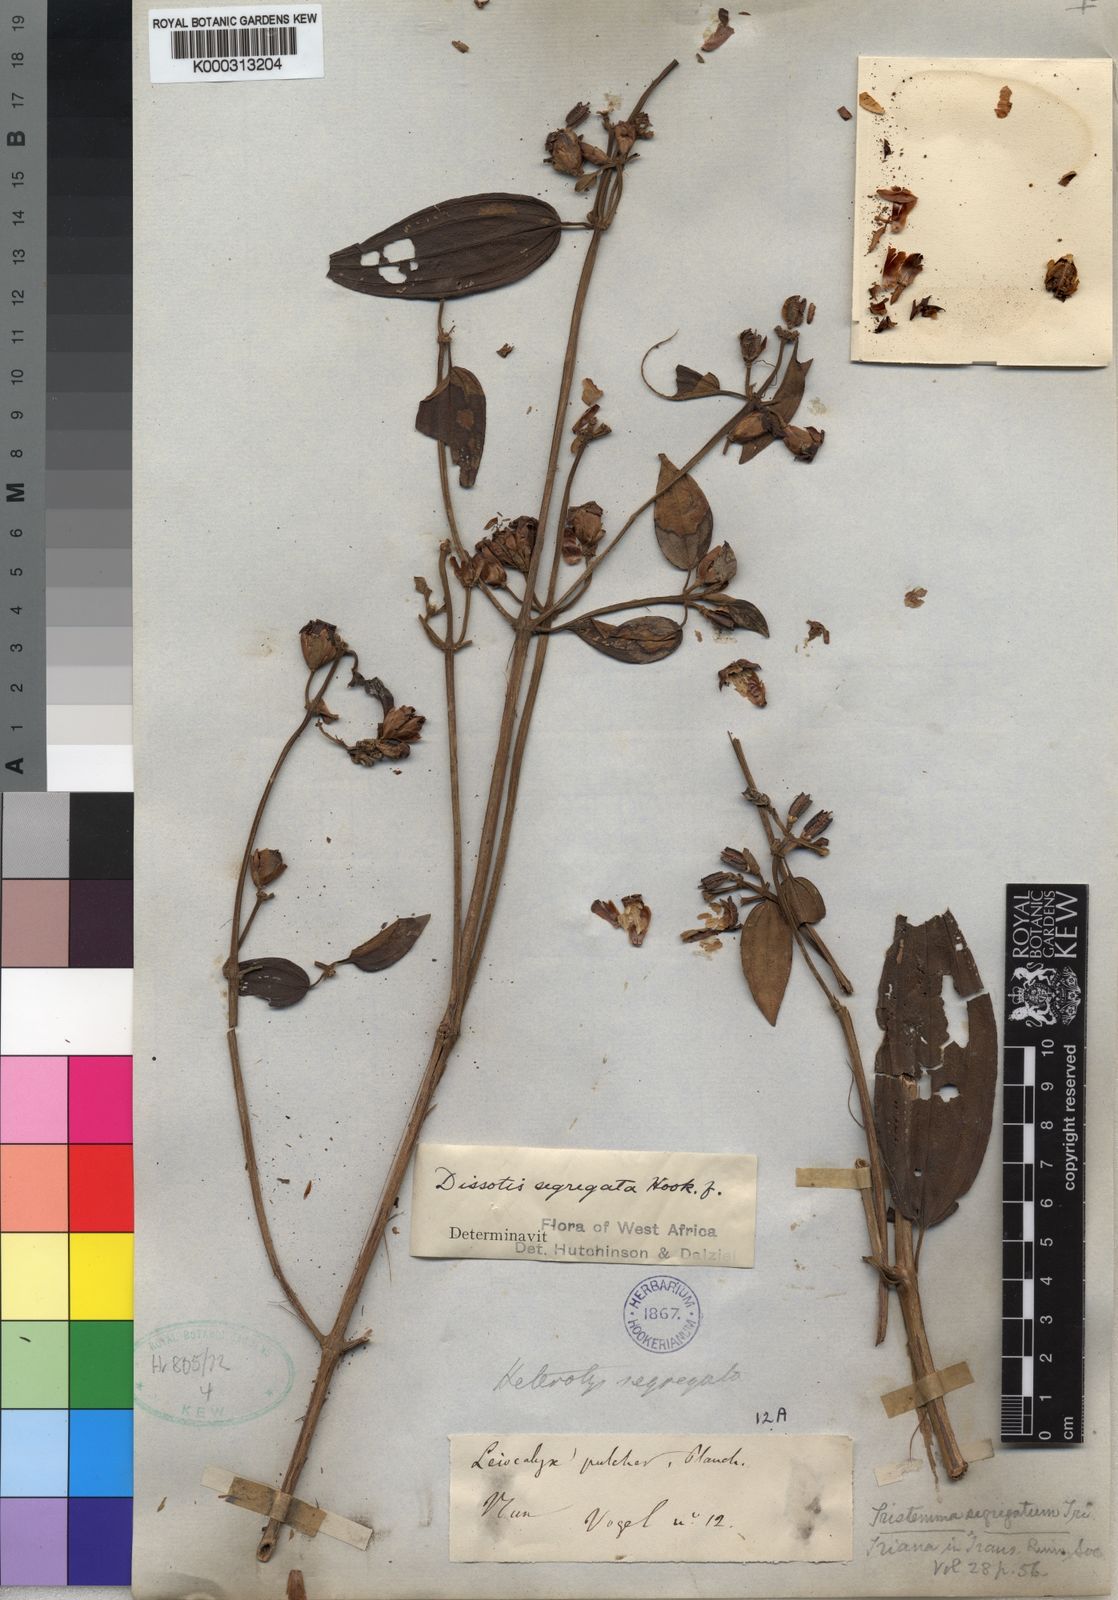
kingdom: Plantae
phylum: Tracheophyta
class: Magnoliopsida
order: Myrtales
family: Melastomataceae
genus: Melastomastrum
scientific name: Melastomastrum segregatum
